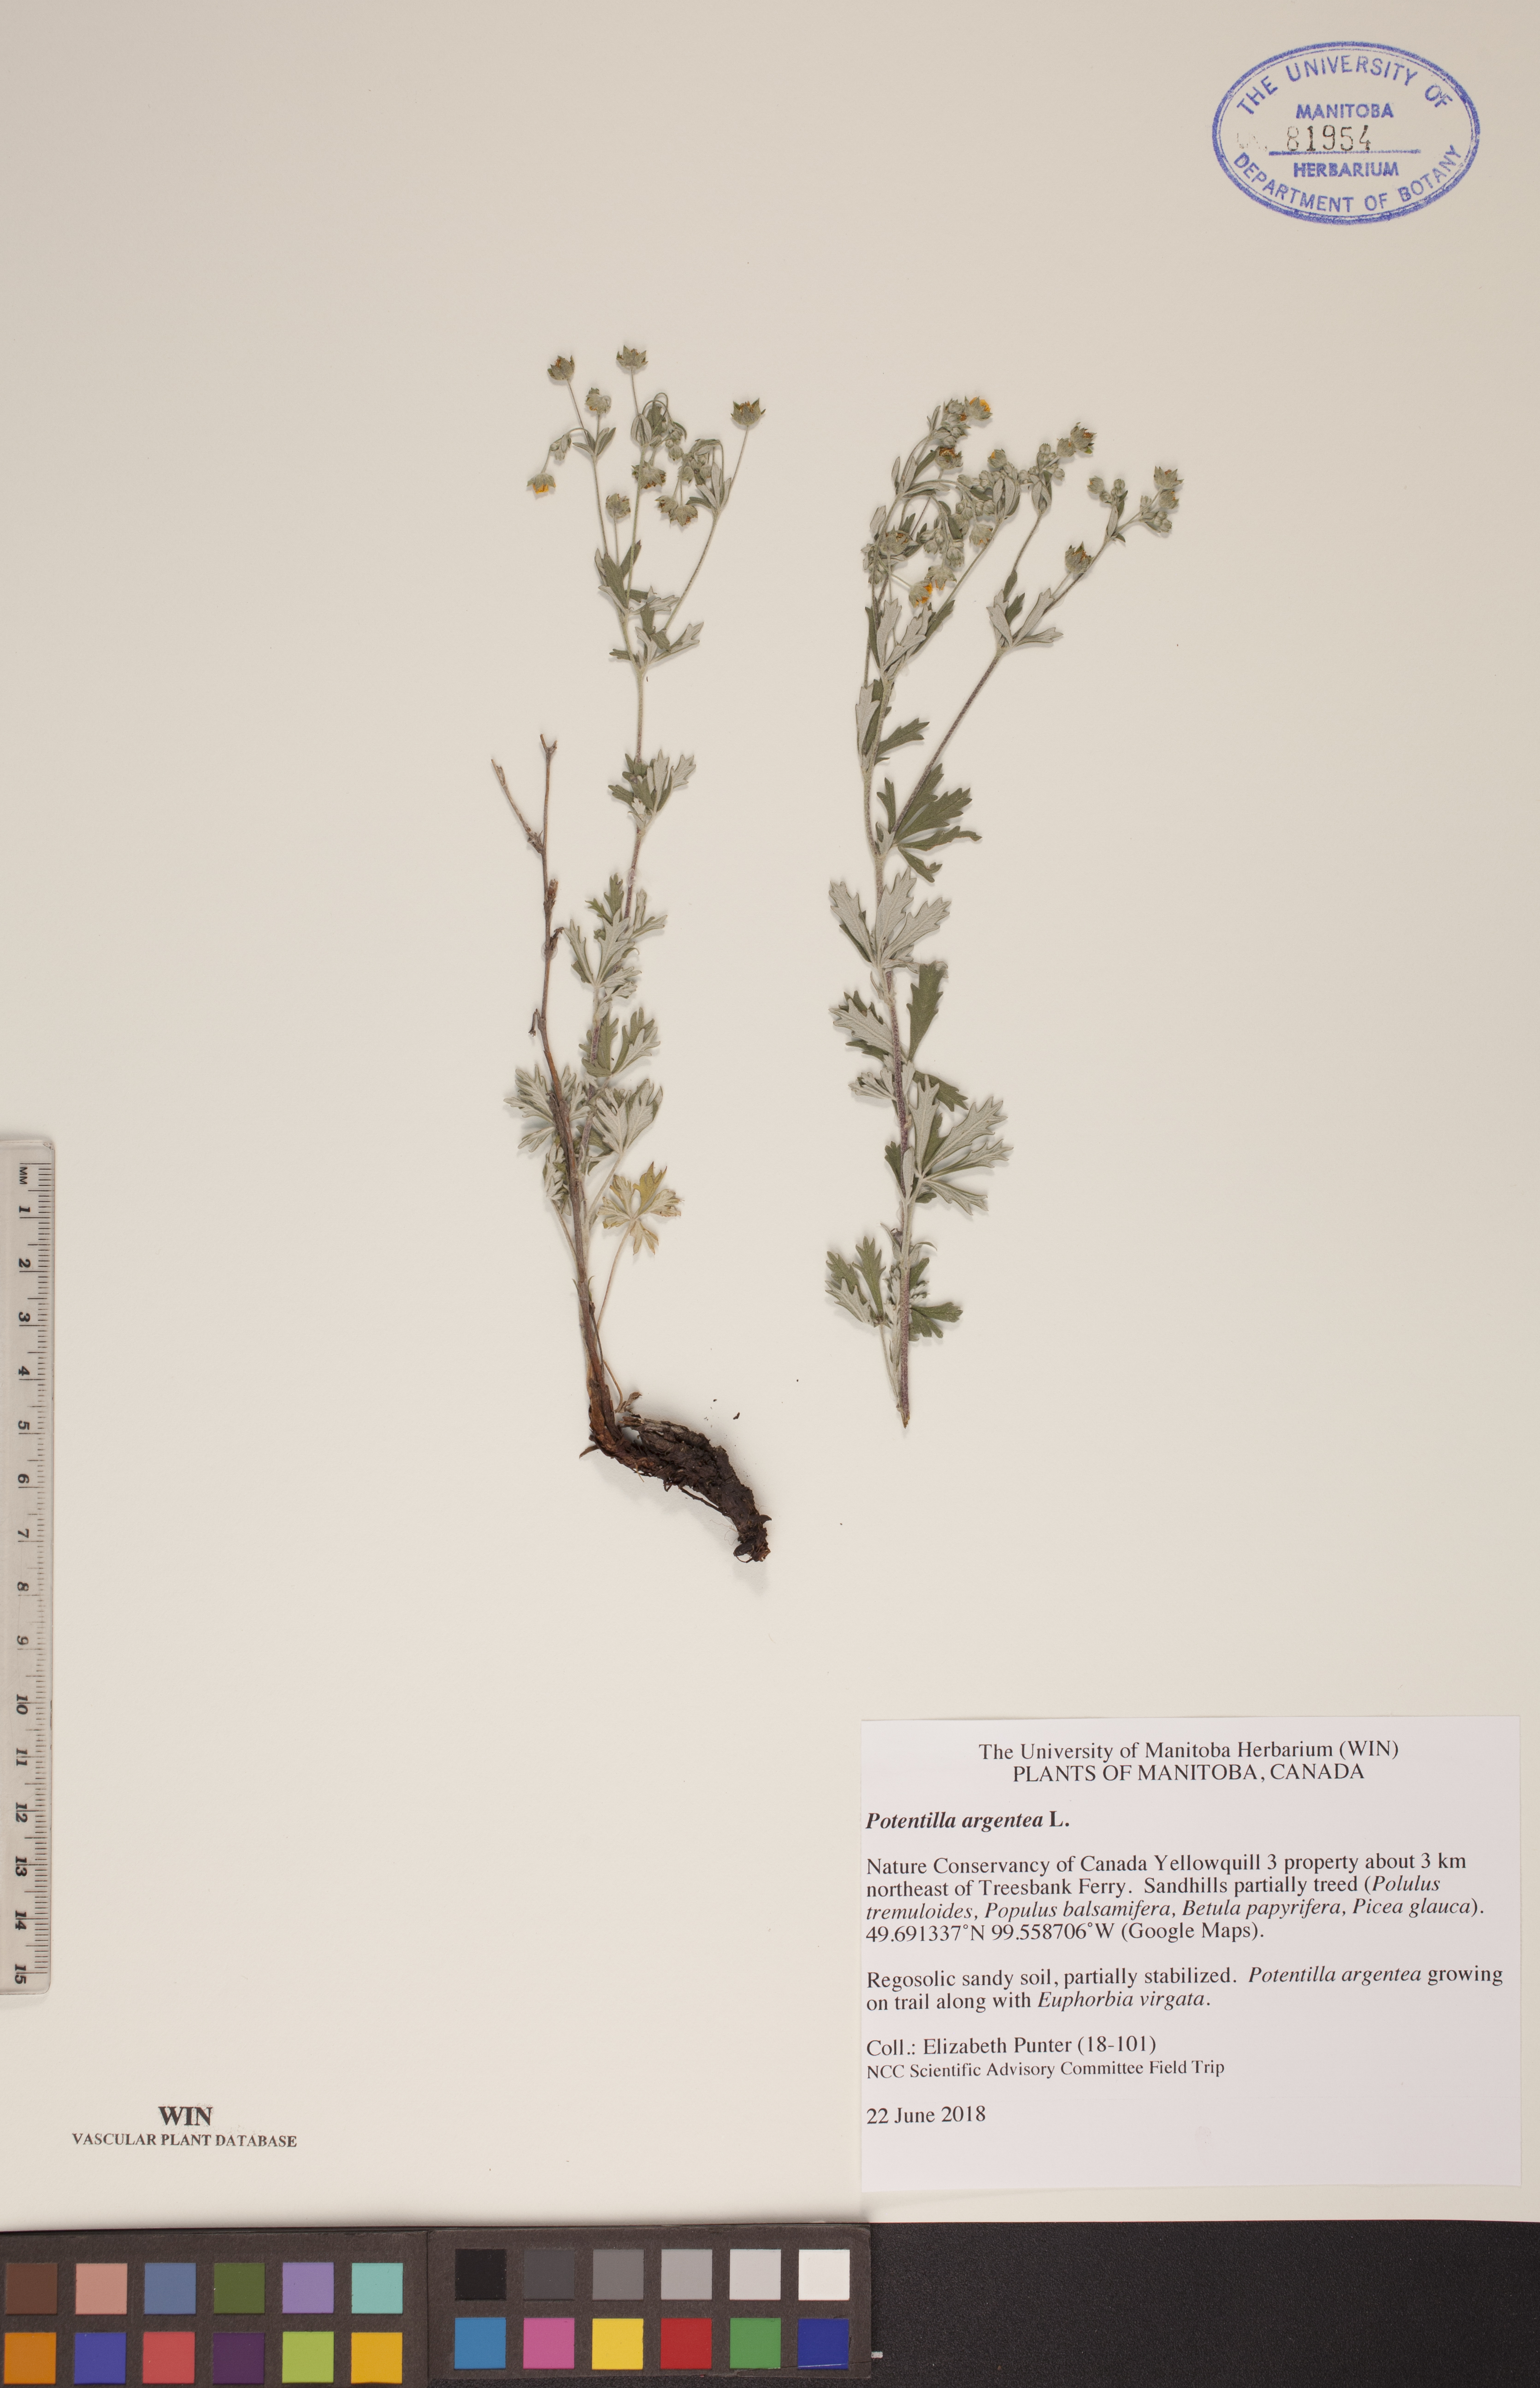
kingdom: Plantae
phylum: Tracheophyta
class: Magnoliopsida
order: Rosales
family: Rosaceae
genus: Potentilla
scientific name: Potentilla argentea
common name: Hoary cinquefoil
